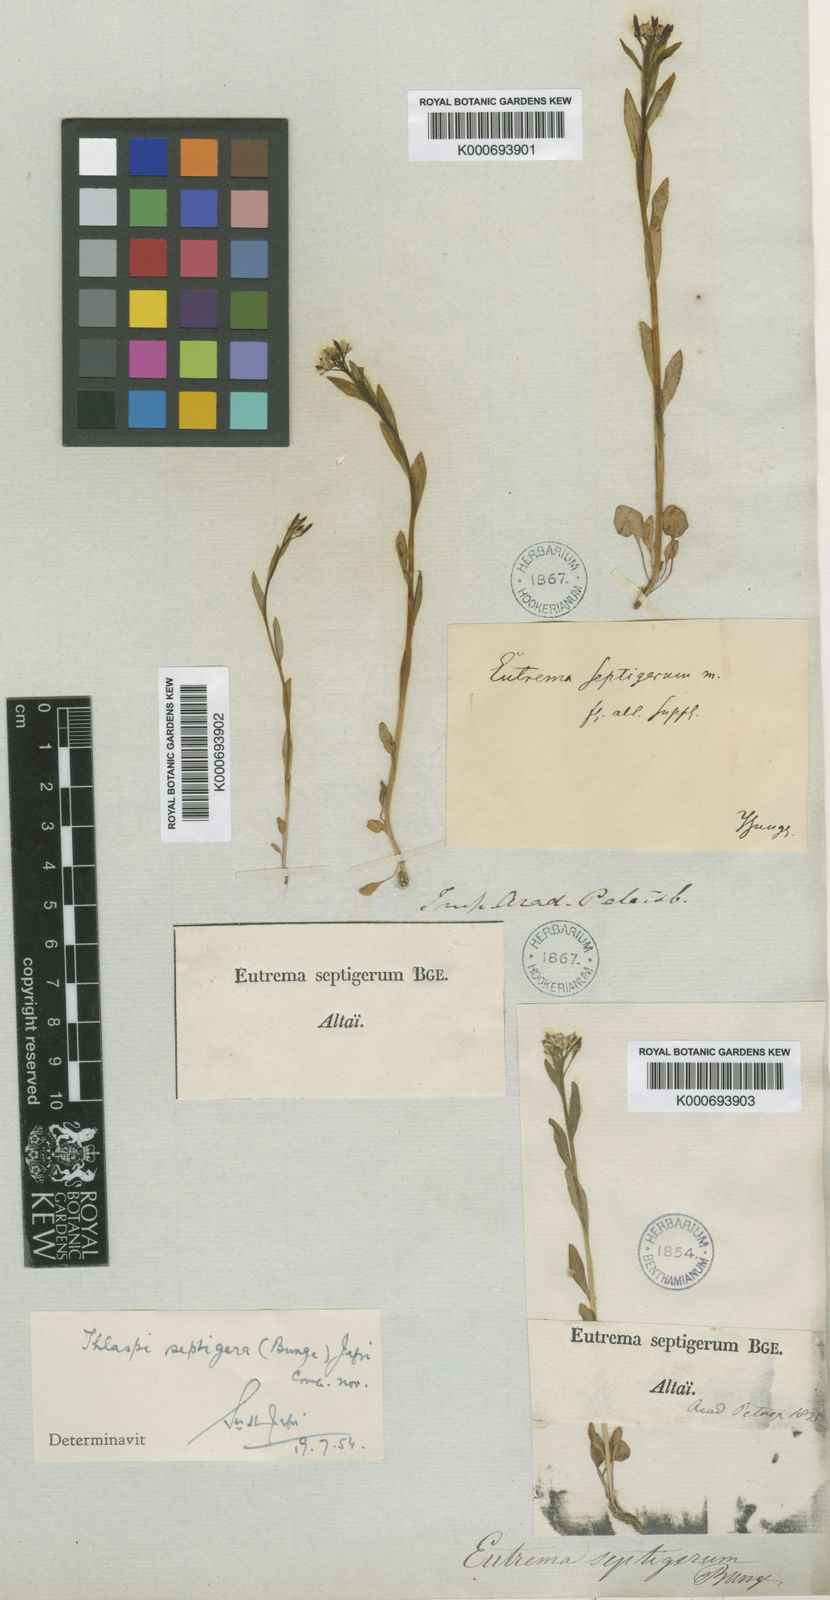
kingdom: Plantae
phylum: Tracheophyta
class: Magnoliopsida
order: Brassicales
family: Brassicaceae
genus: Eutrema
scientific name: Eutrema edwardsii
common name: Penland alpine fen mustard
